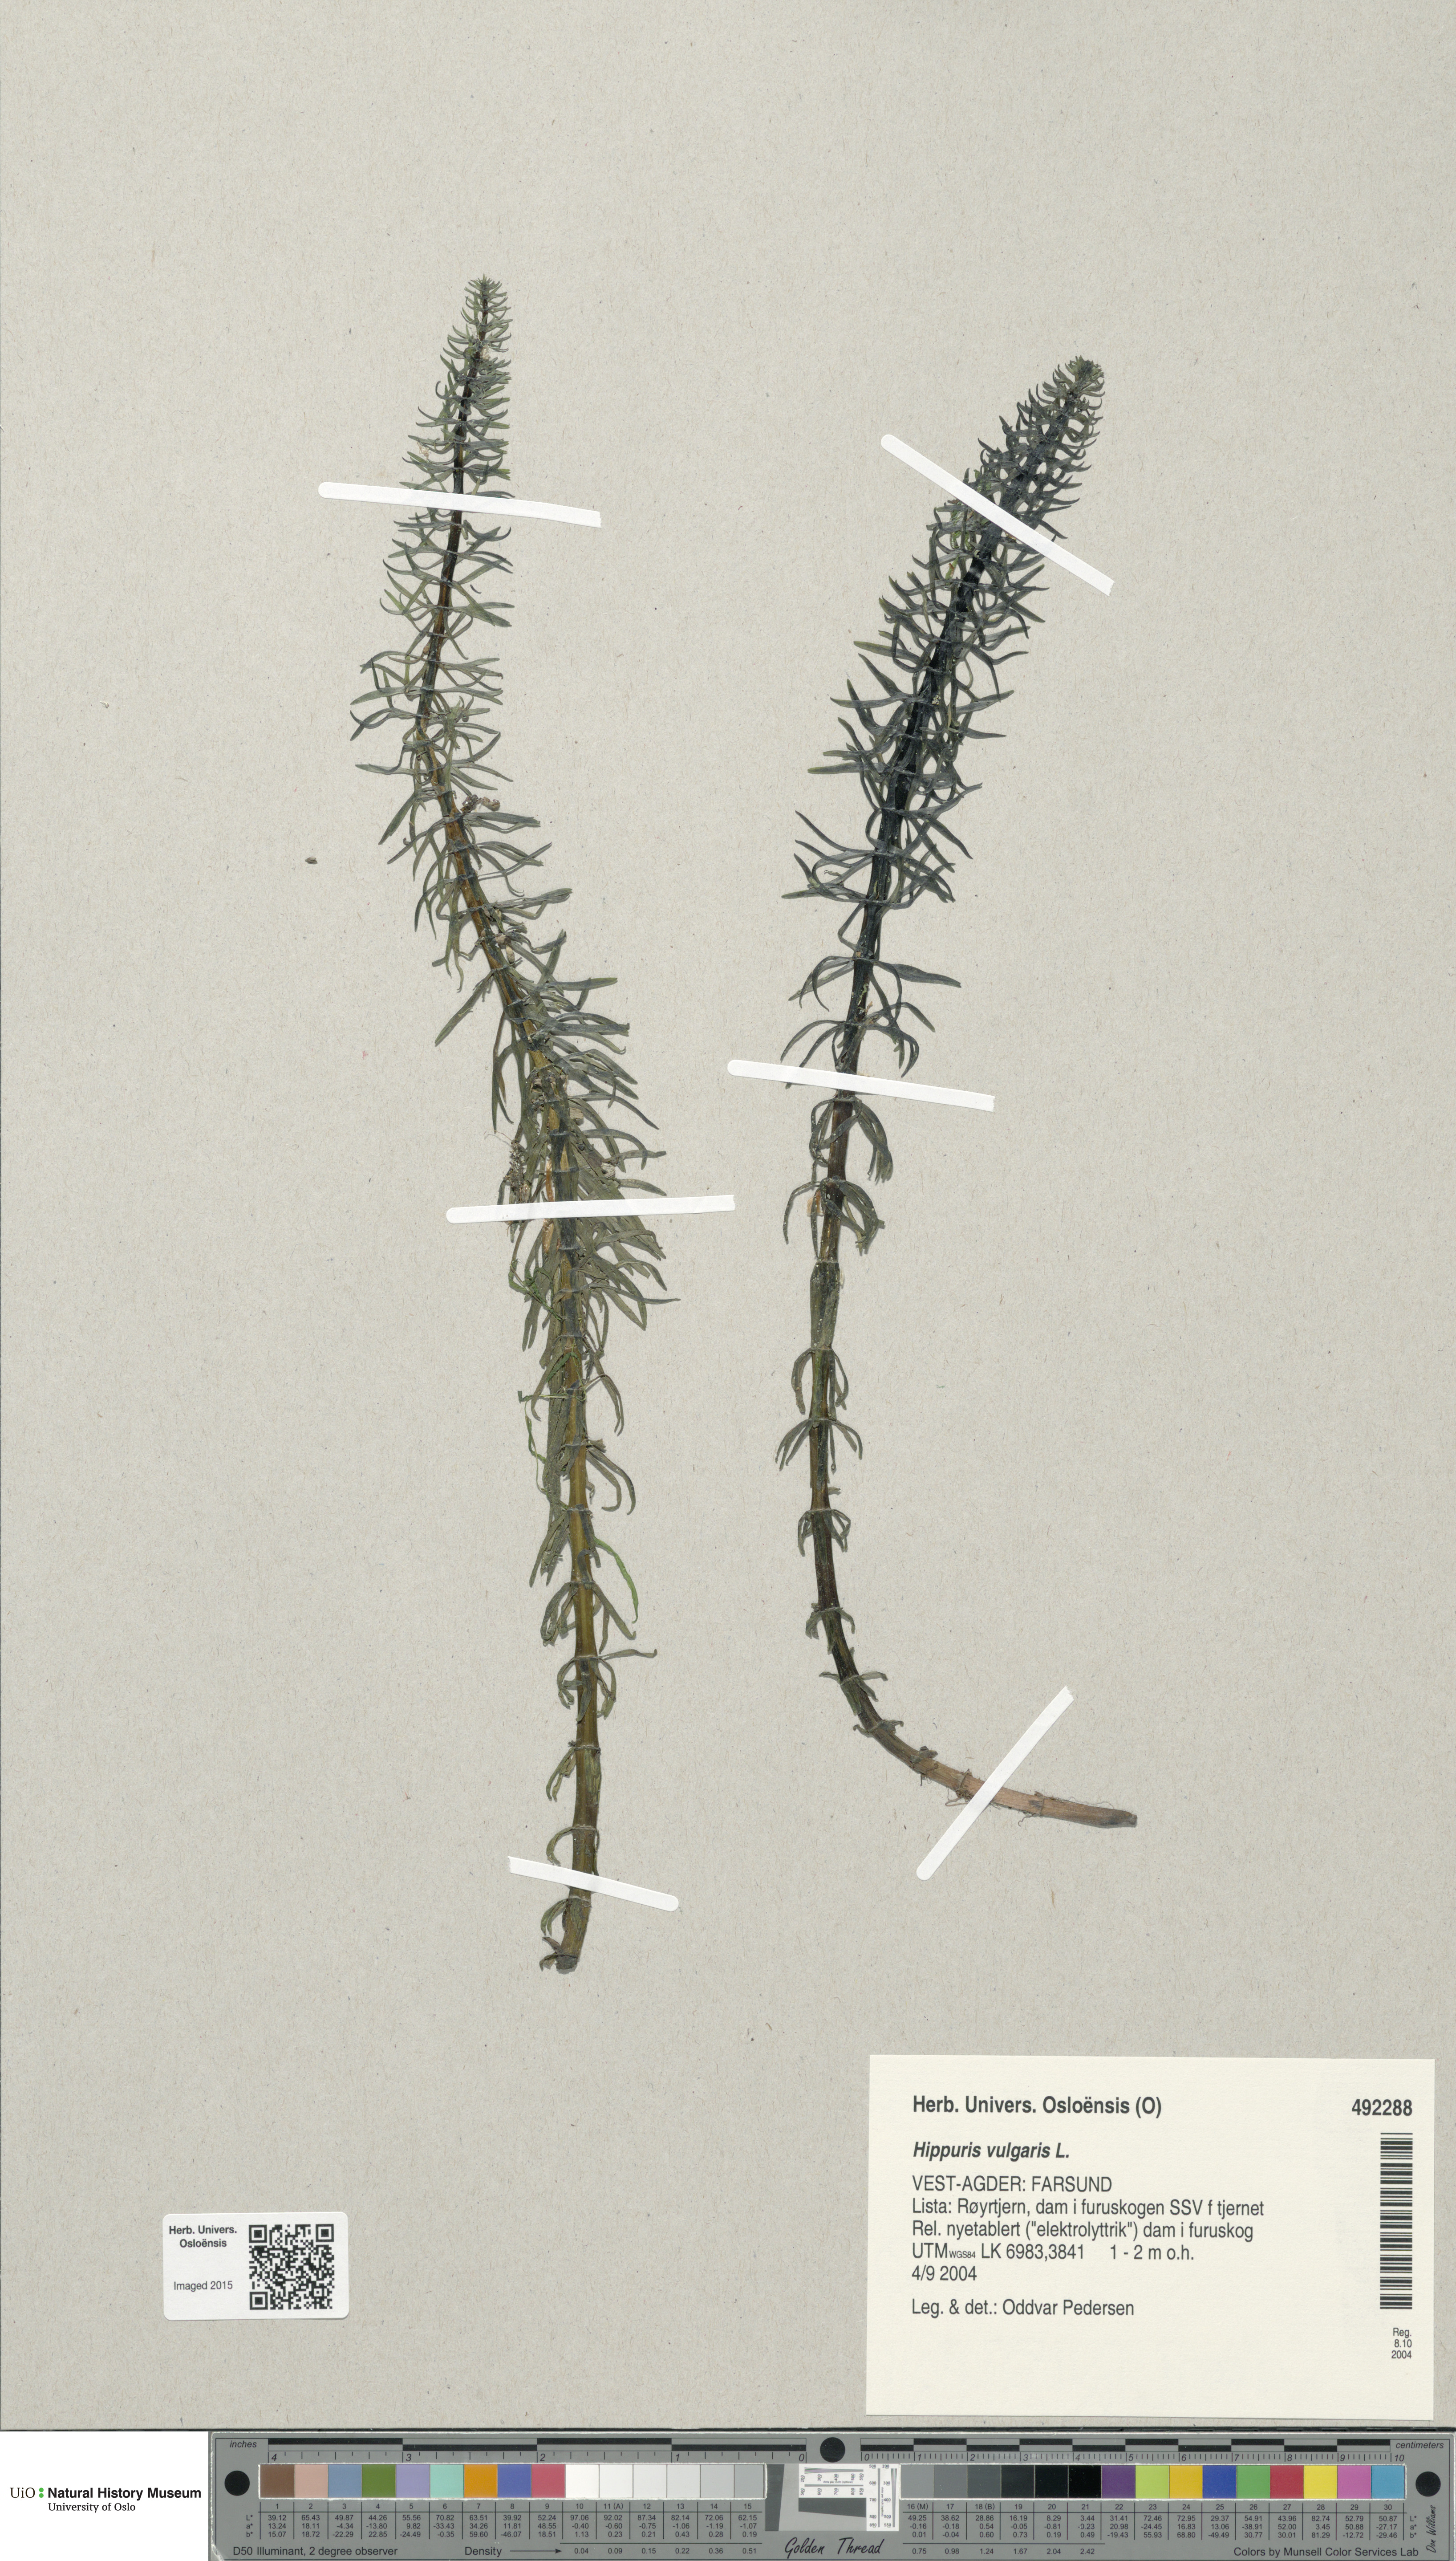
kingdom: Plantae
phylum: Tracheophyta
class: Magnoliopsida
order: Lamiales
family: Plantaginaceae
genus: Hippuris
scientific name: Hippuris vulgaris
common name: Mare's-tail
